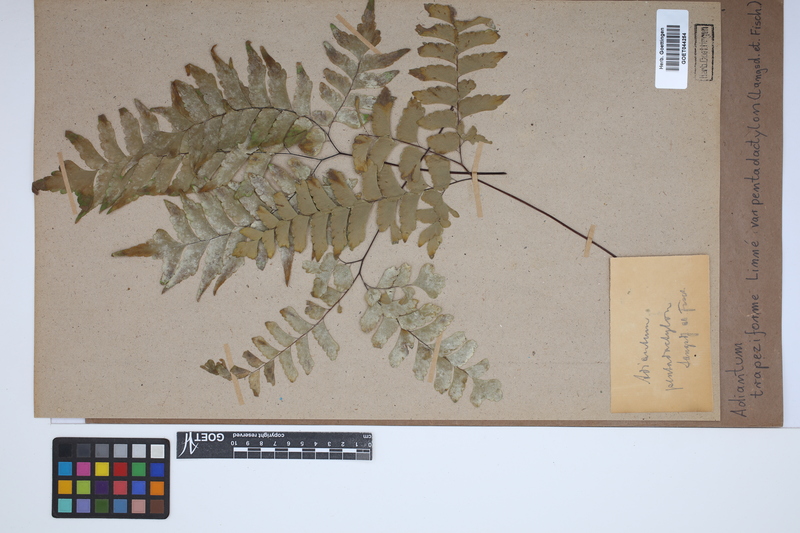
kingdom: Plantae
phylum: Tracheophyta
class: Polypodiopsida
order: Polypodiales
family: Pteridaceae
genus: Adiantum
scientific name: Adiantum pentadactylon
